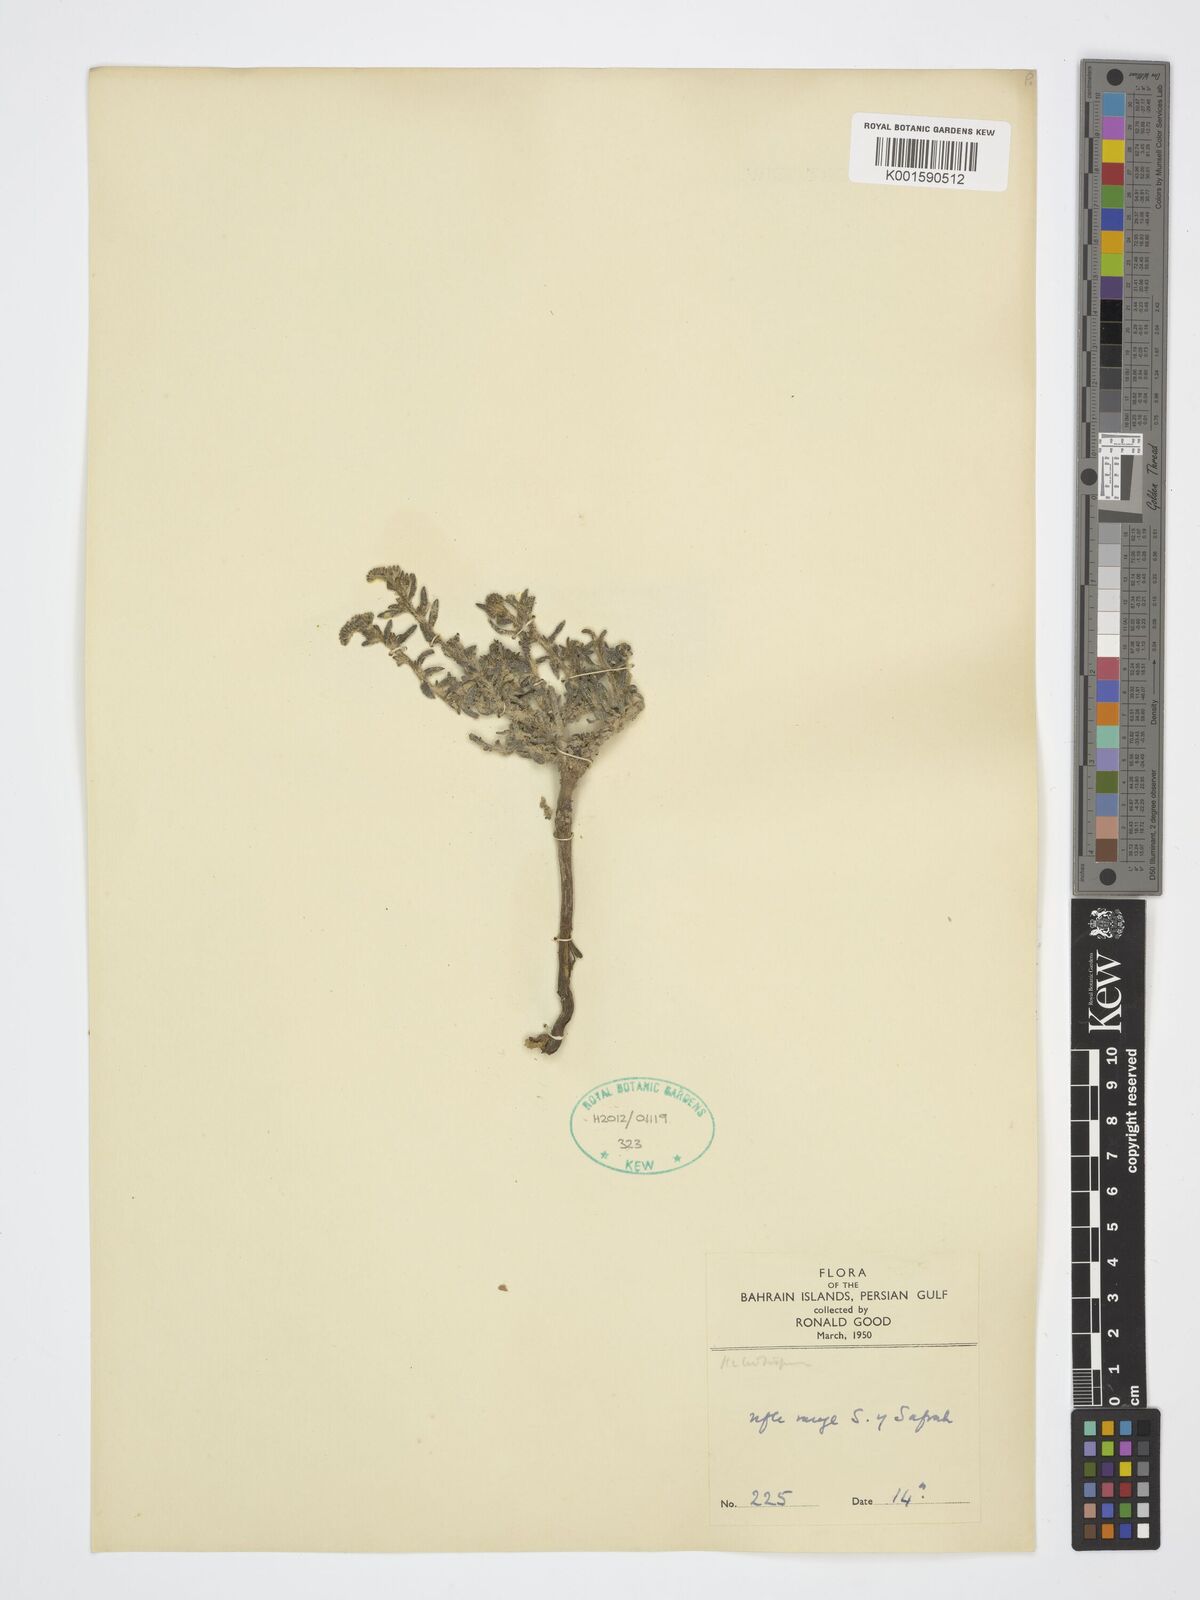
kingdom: Plantae
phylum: Tracheophyta
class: Magnoliopsida
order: Boraginales
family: Heliotropiaceae
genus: Heliotropium
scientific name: Heliotropium
